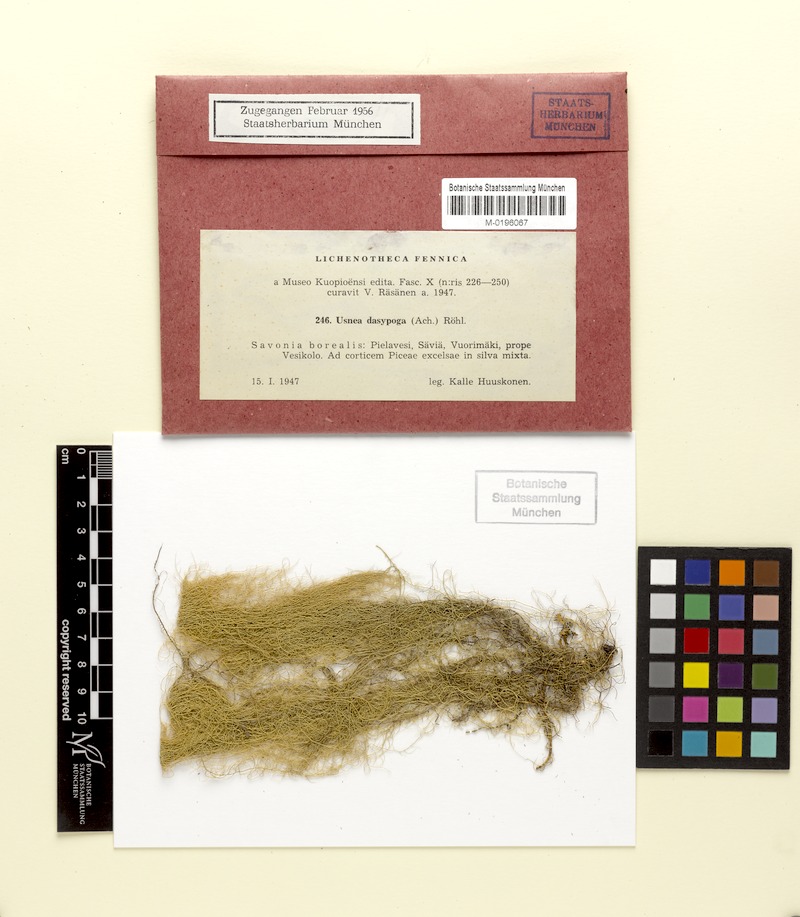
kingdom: Fungi
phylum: Ascomycota
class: Lecanoromycetes
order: Lecanorales
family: Parmeliaceae
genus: Usnea
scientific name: Usnea dasopoga
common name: Fishbone beard lichen
